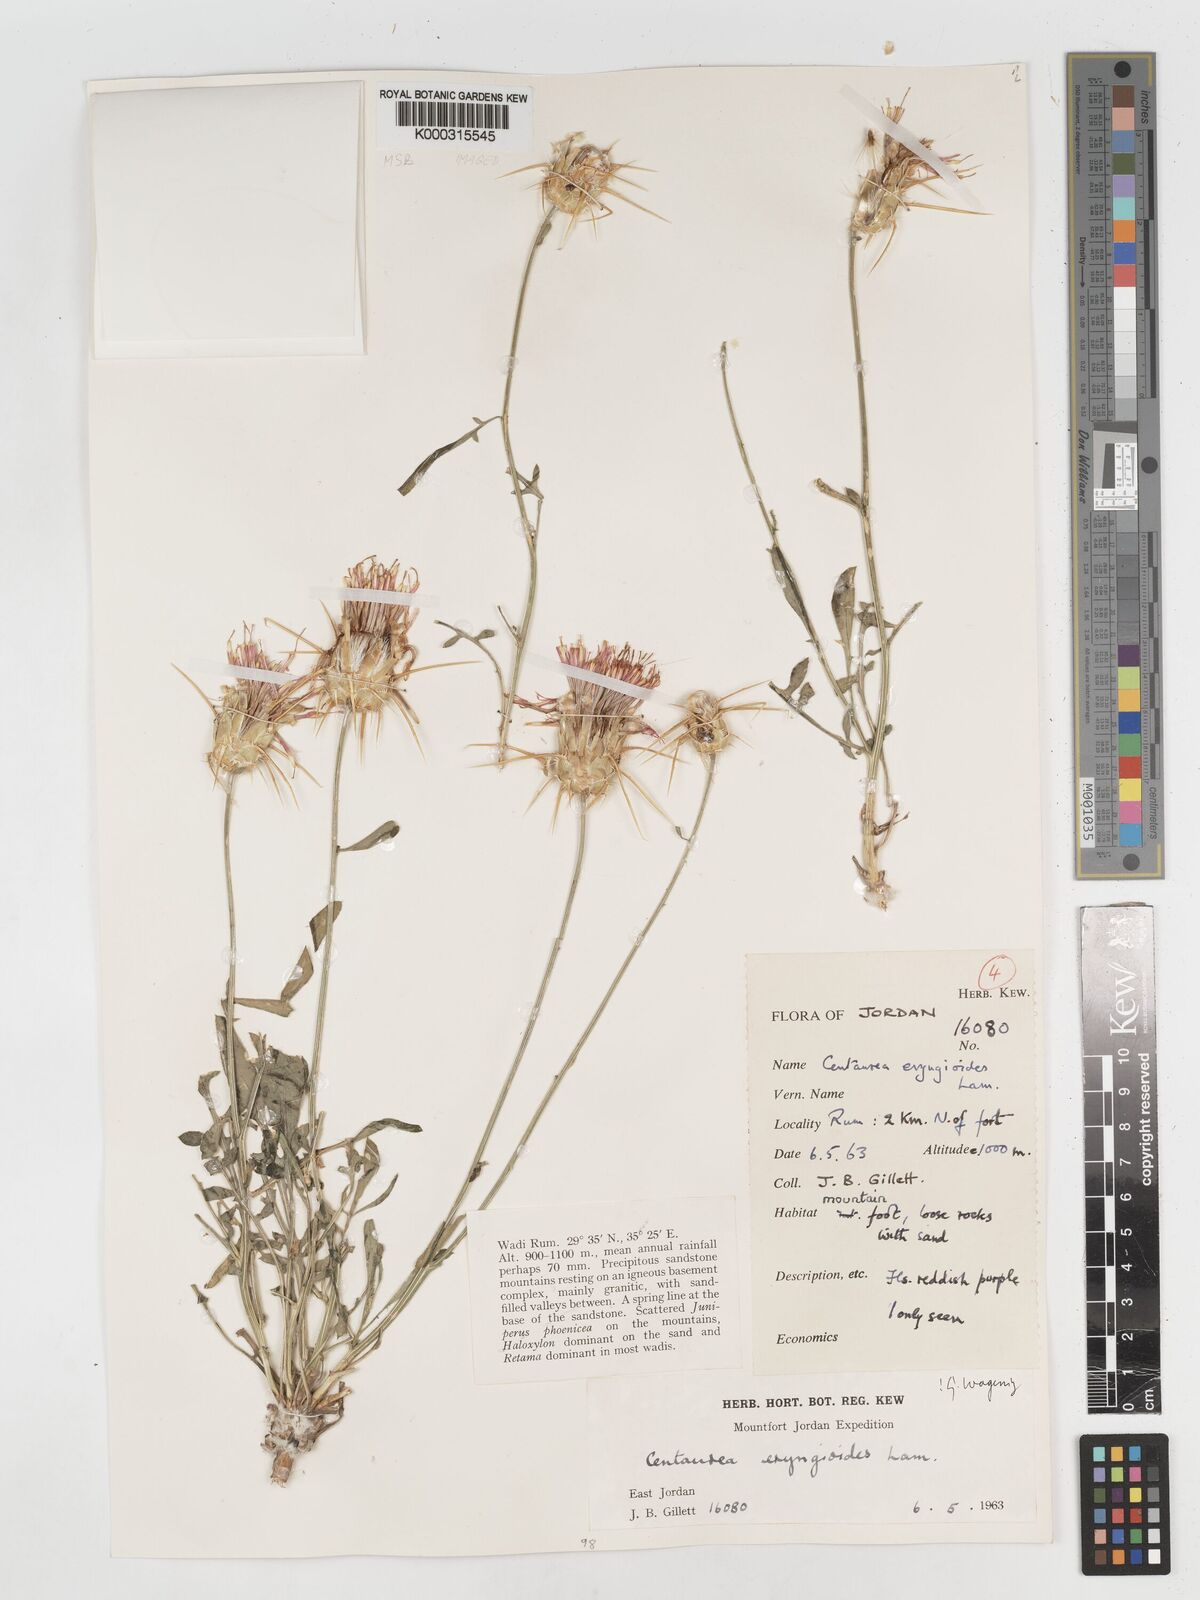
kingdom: Plantae
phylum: Tracheophyta
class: Magnoliopsida
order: Asterales
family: Asteraceae
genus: Centaurea
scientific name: Centaurea eryngioides
